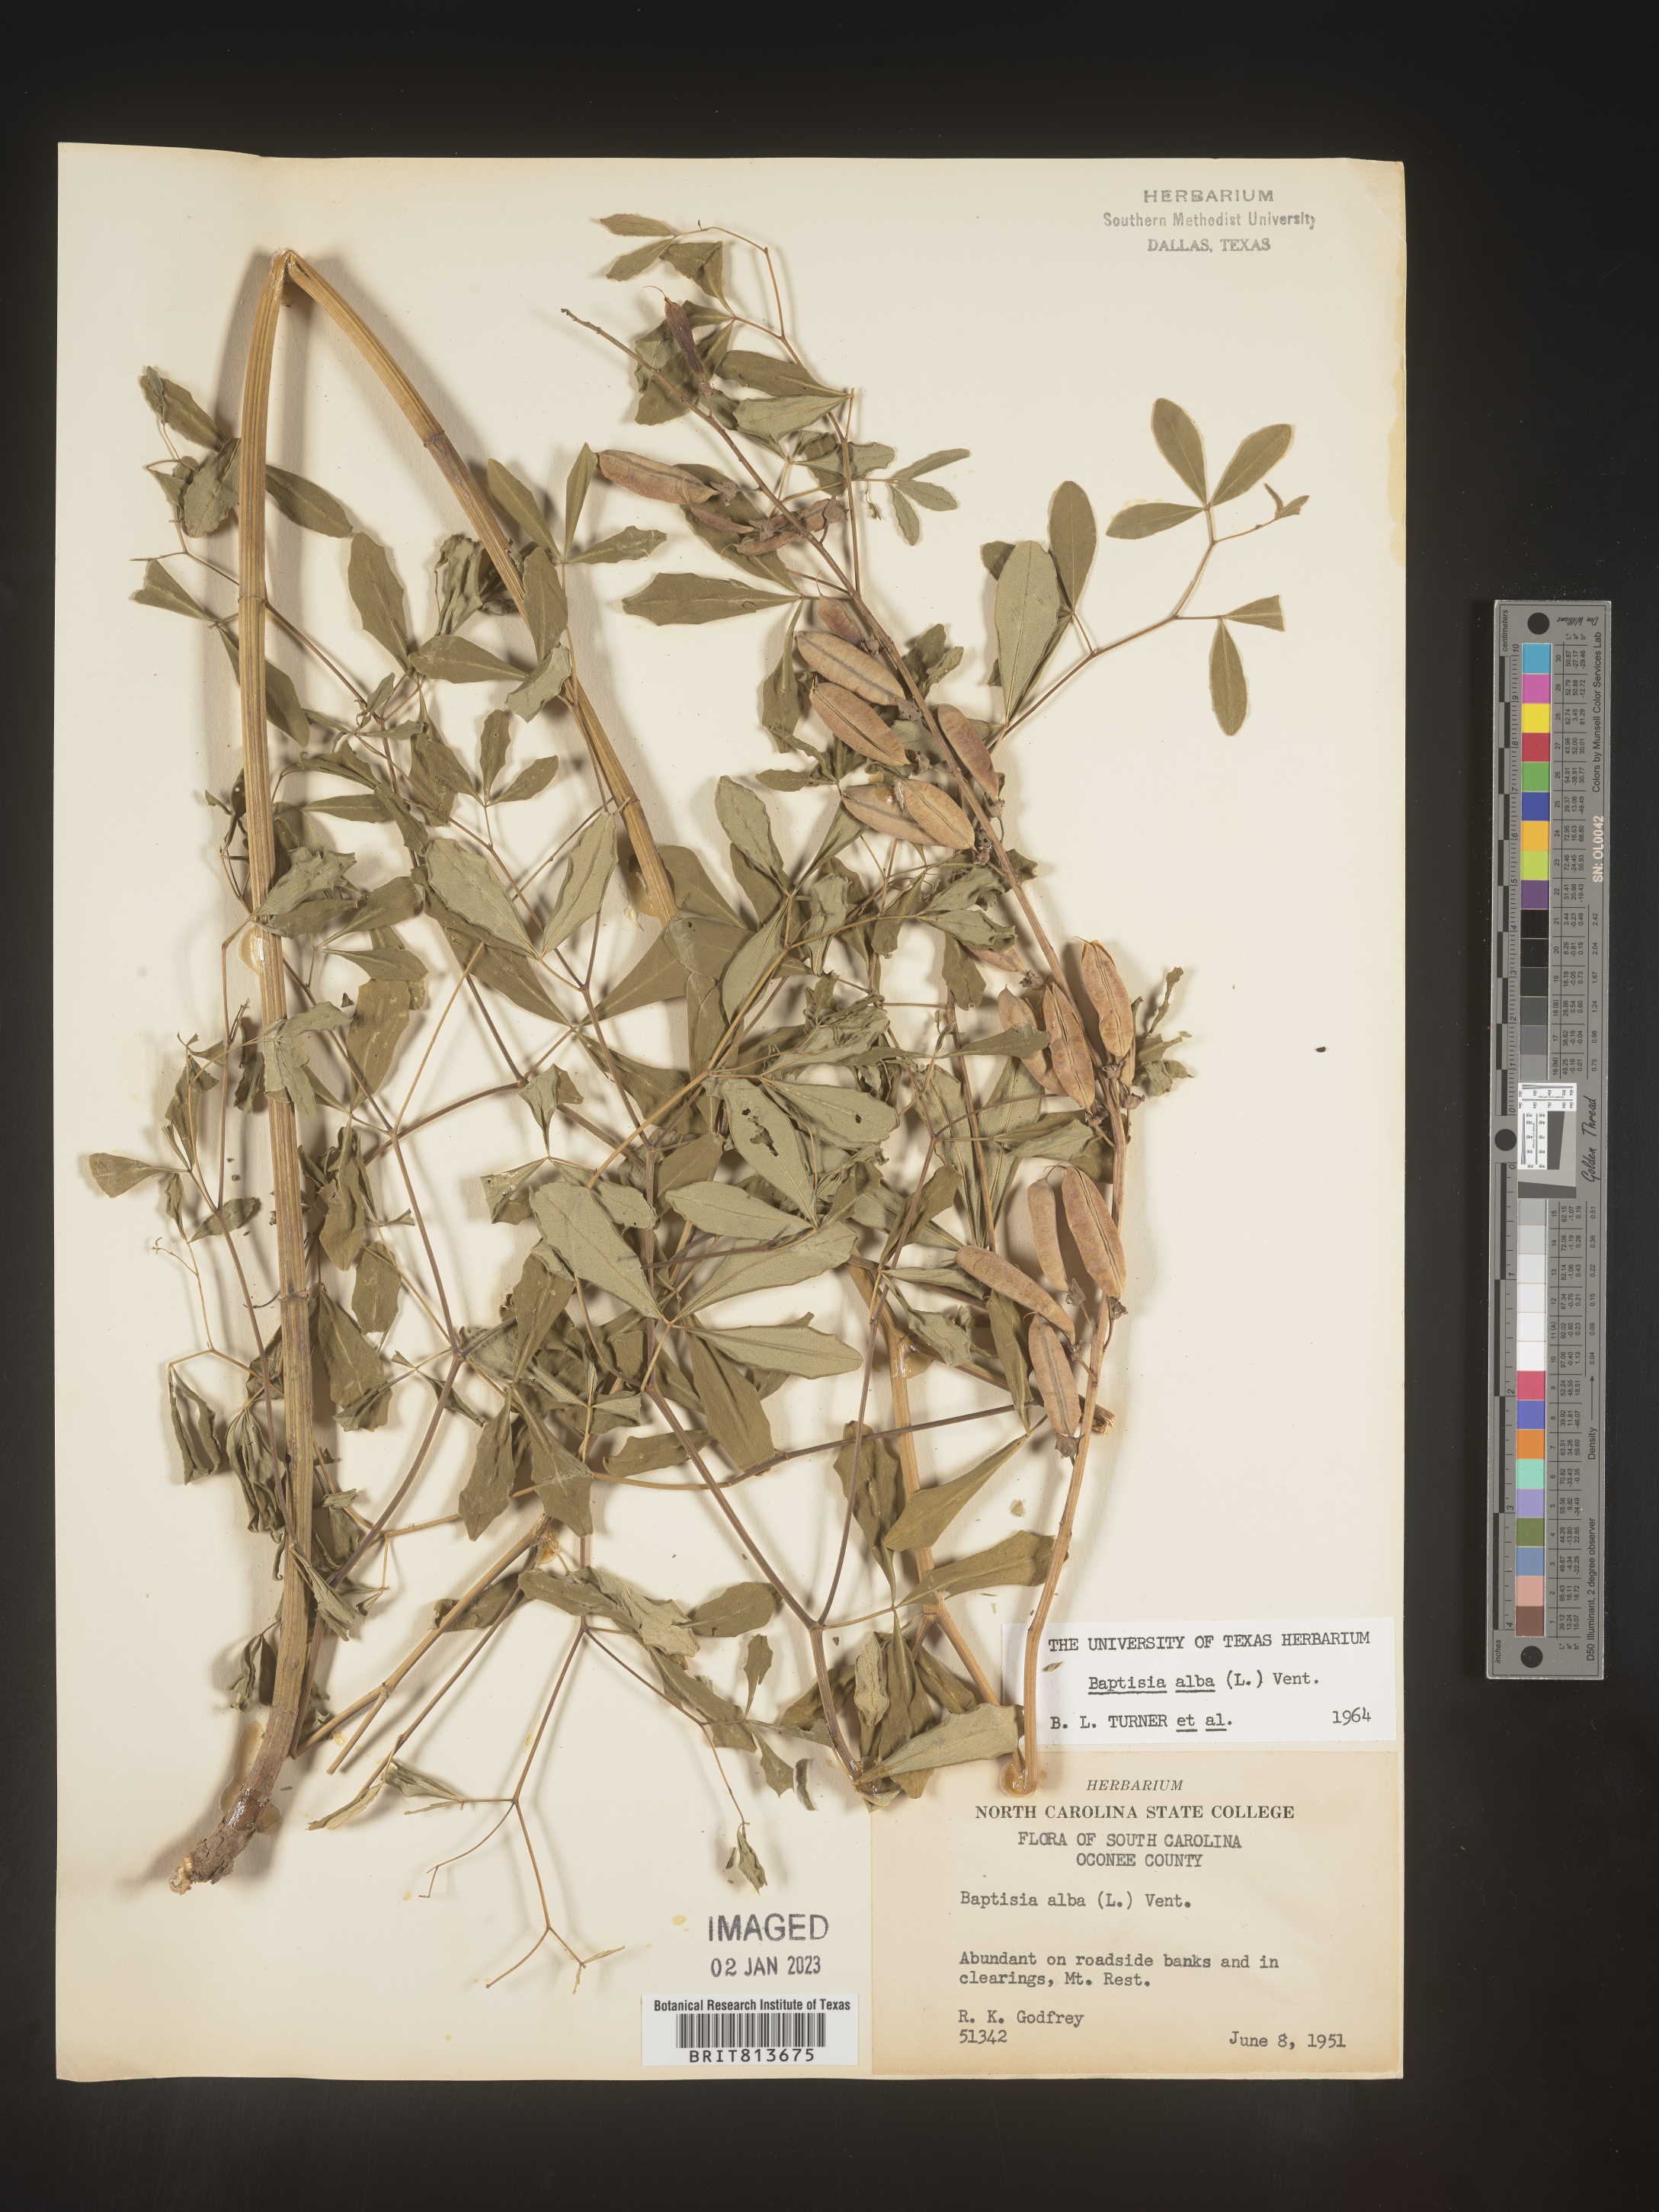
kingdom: Plantae
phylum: Tracheophyta
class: Magnoliopsida
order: Fabales
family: Fabaceae
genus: Baptisia
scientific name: Baptisia alba
